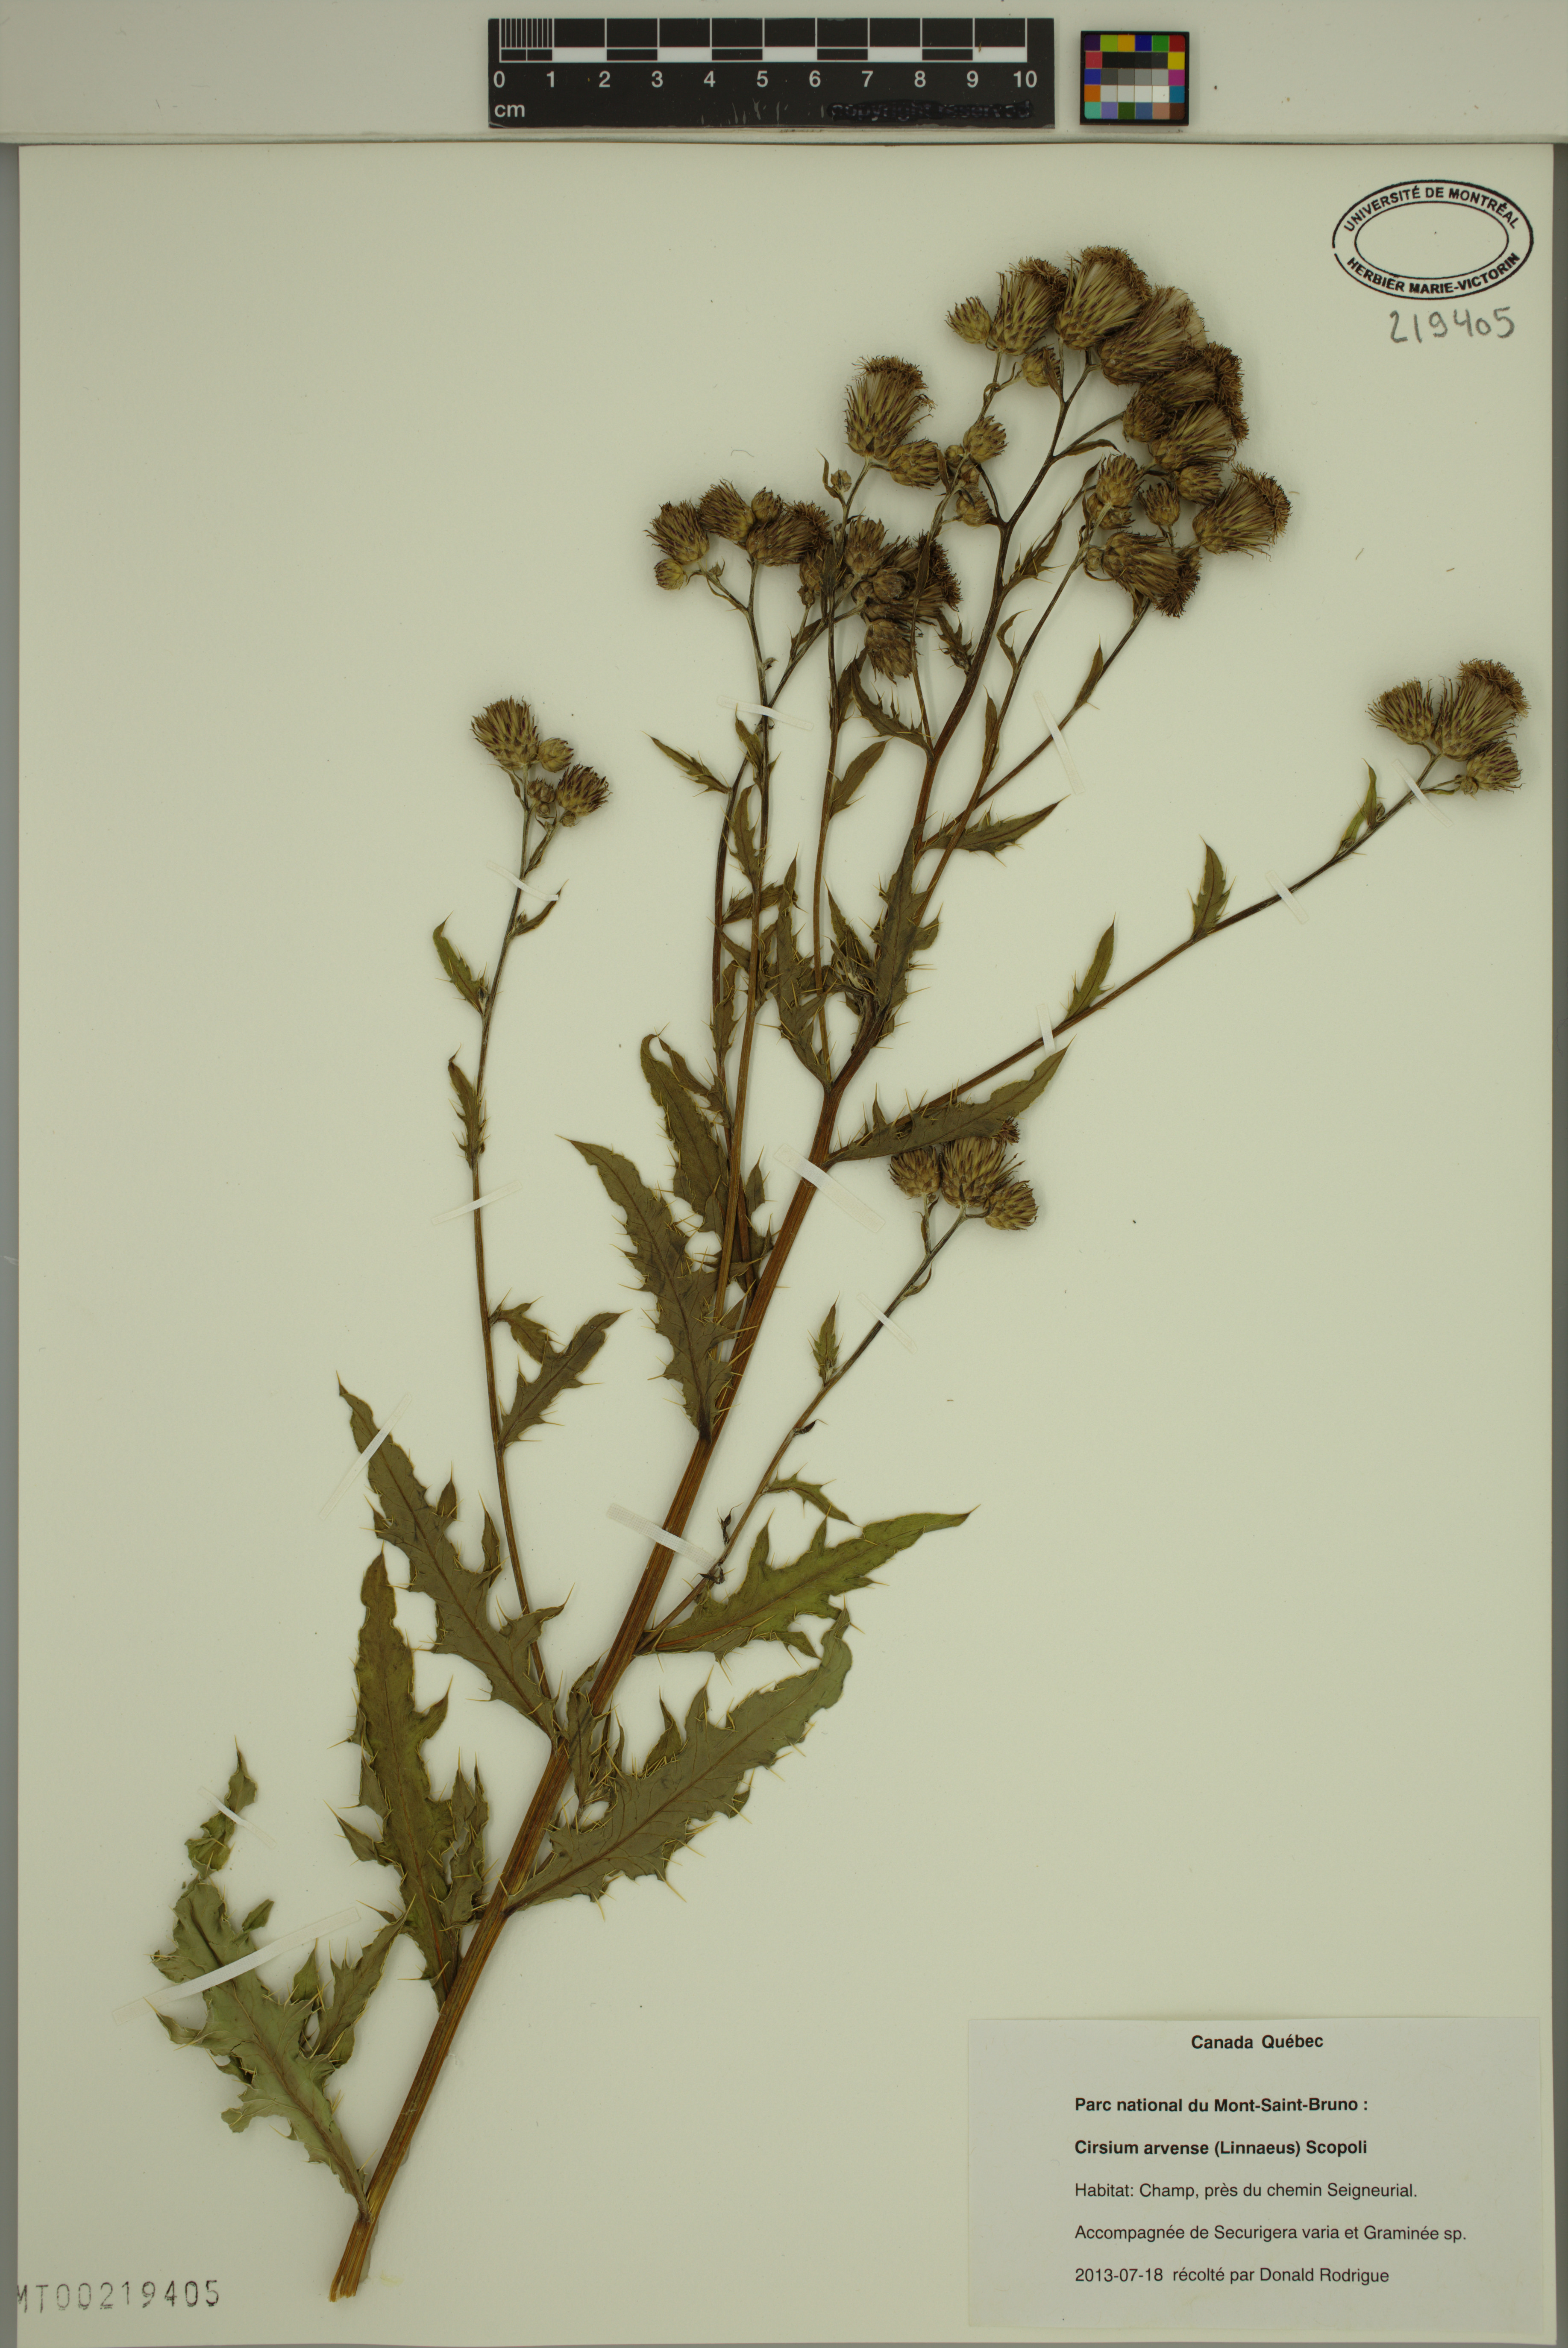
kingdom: Plantae
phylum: Tracheophyta
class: Magnoliopsida
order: Asterales
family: Asteraceae
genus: Cirsium
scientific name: Cirsium arvense
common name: Creeping thistle
